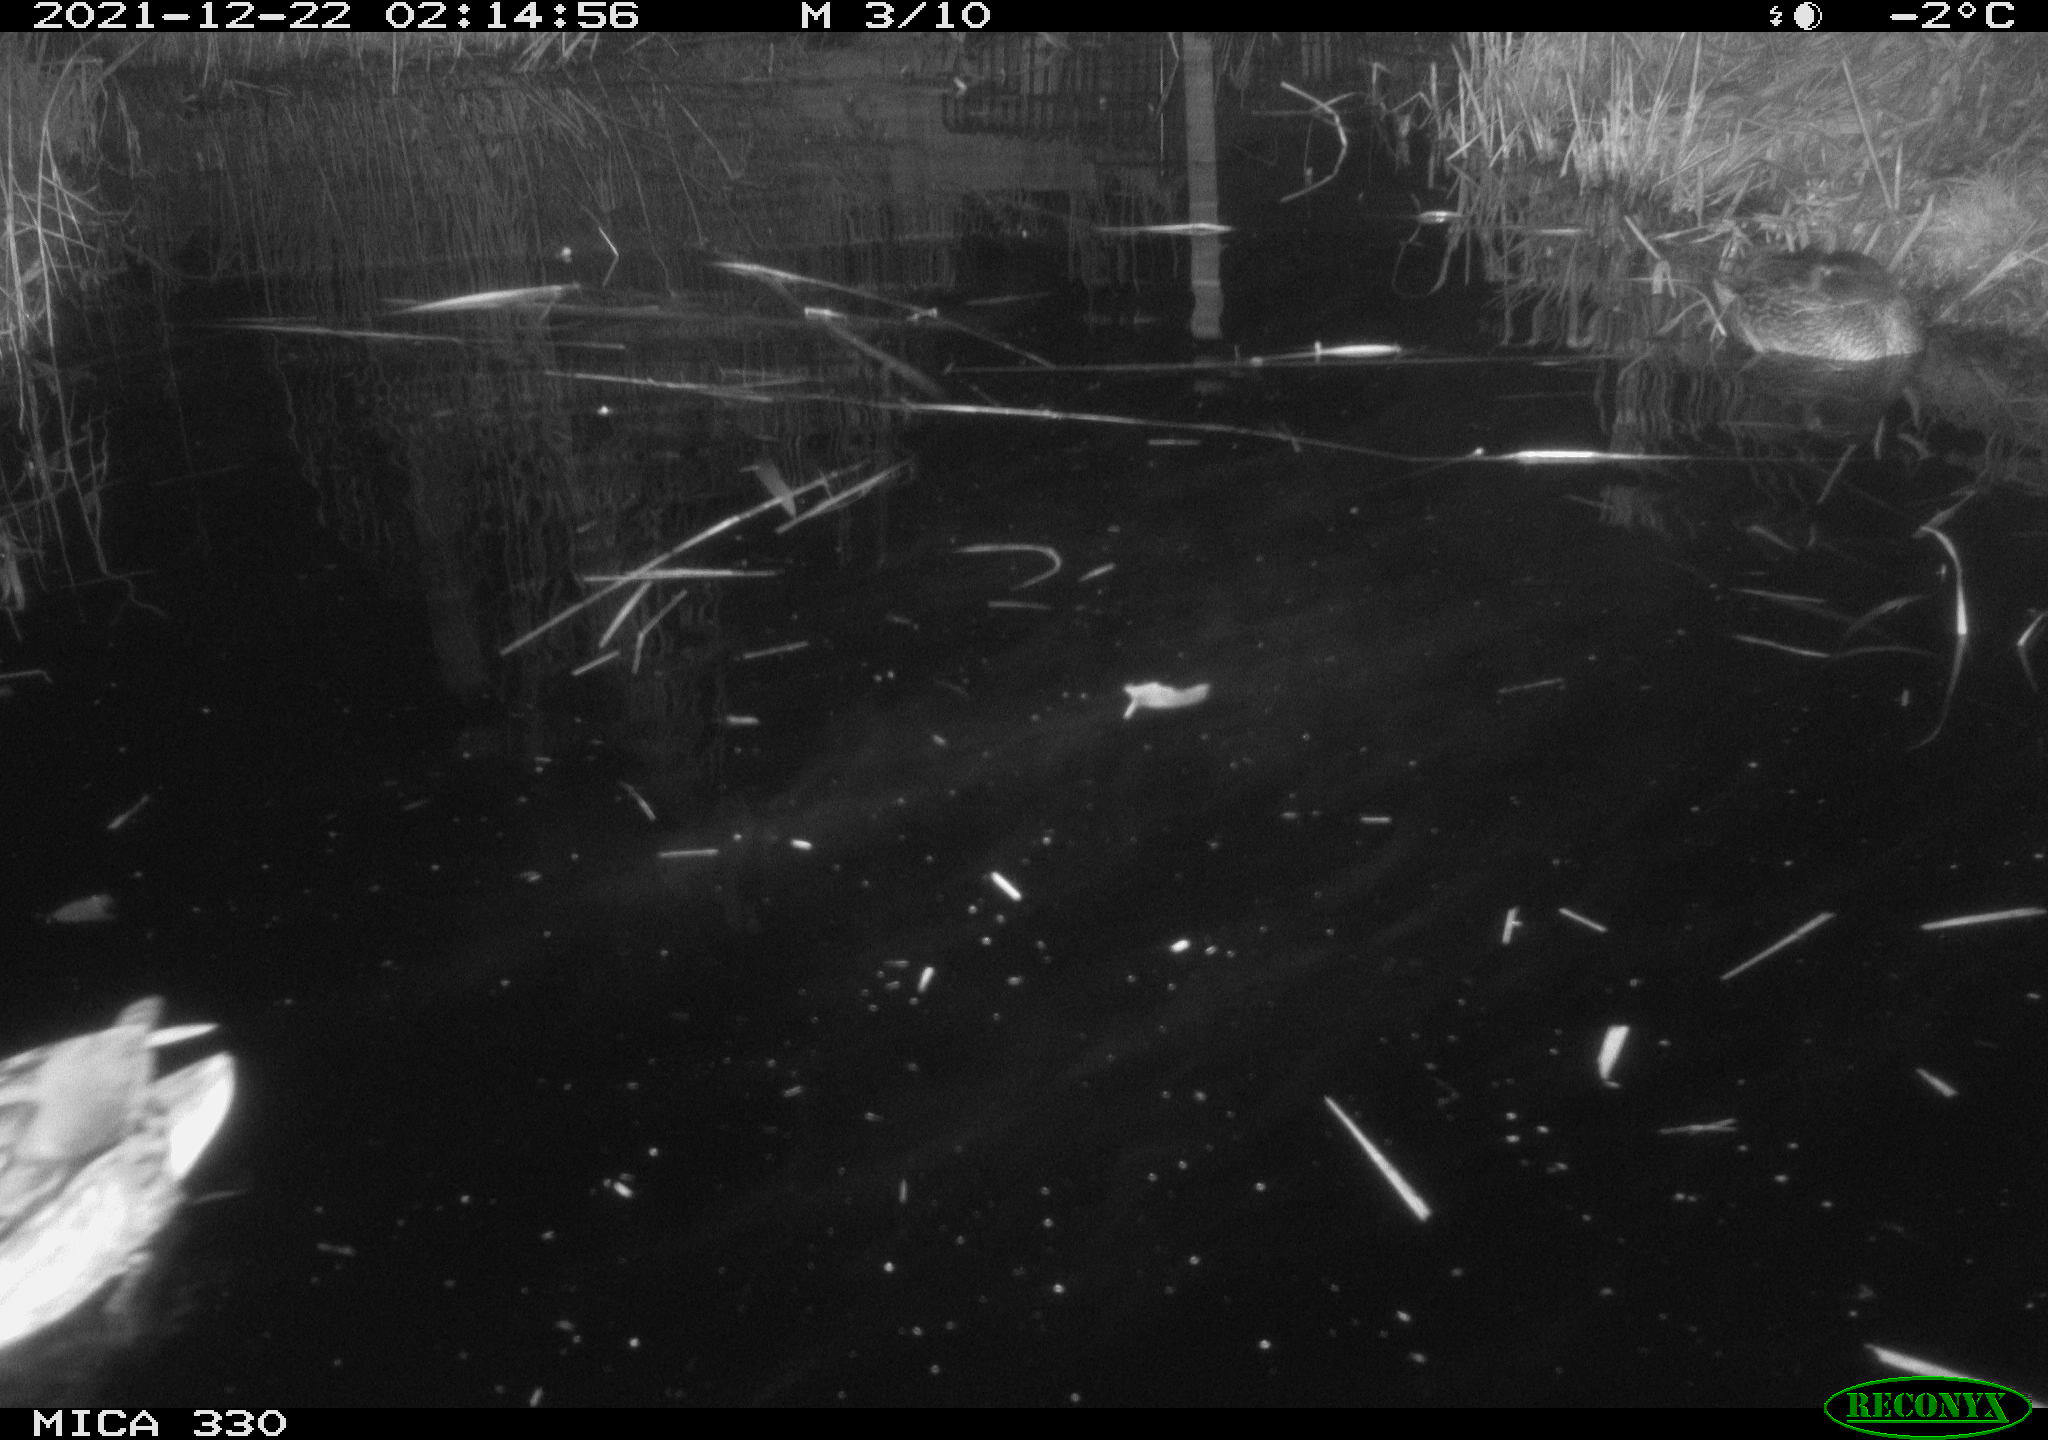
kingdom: Animalia
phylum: Chordata
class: Aves
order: Anseriformes
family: Anatidae
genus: Anas
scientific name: Anas platyrhynchos
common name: Mallard
